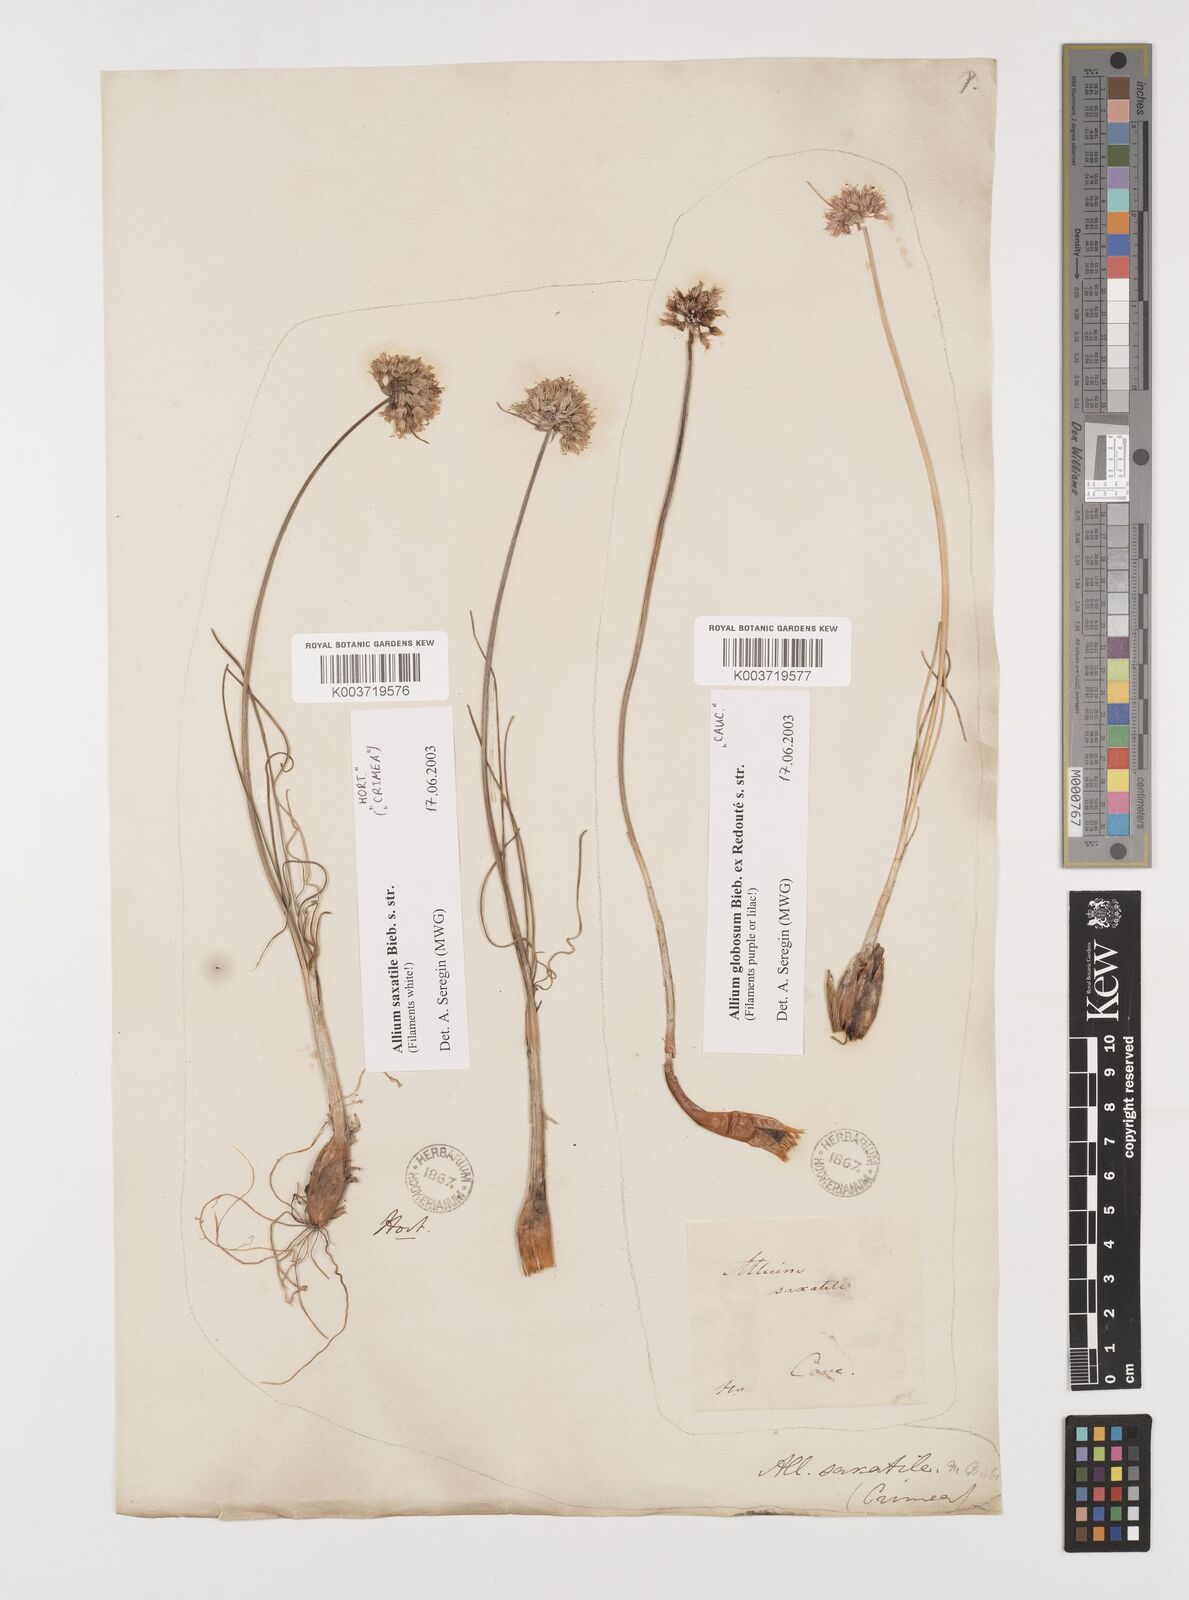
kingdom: Plantae
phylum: Tracheophyta
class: Liliopsida
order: Asparagales
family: Amaryllidaceae
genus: Allium
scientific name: Allium saxatile
